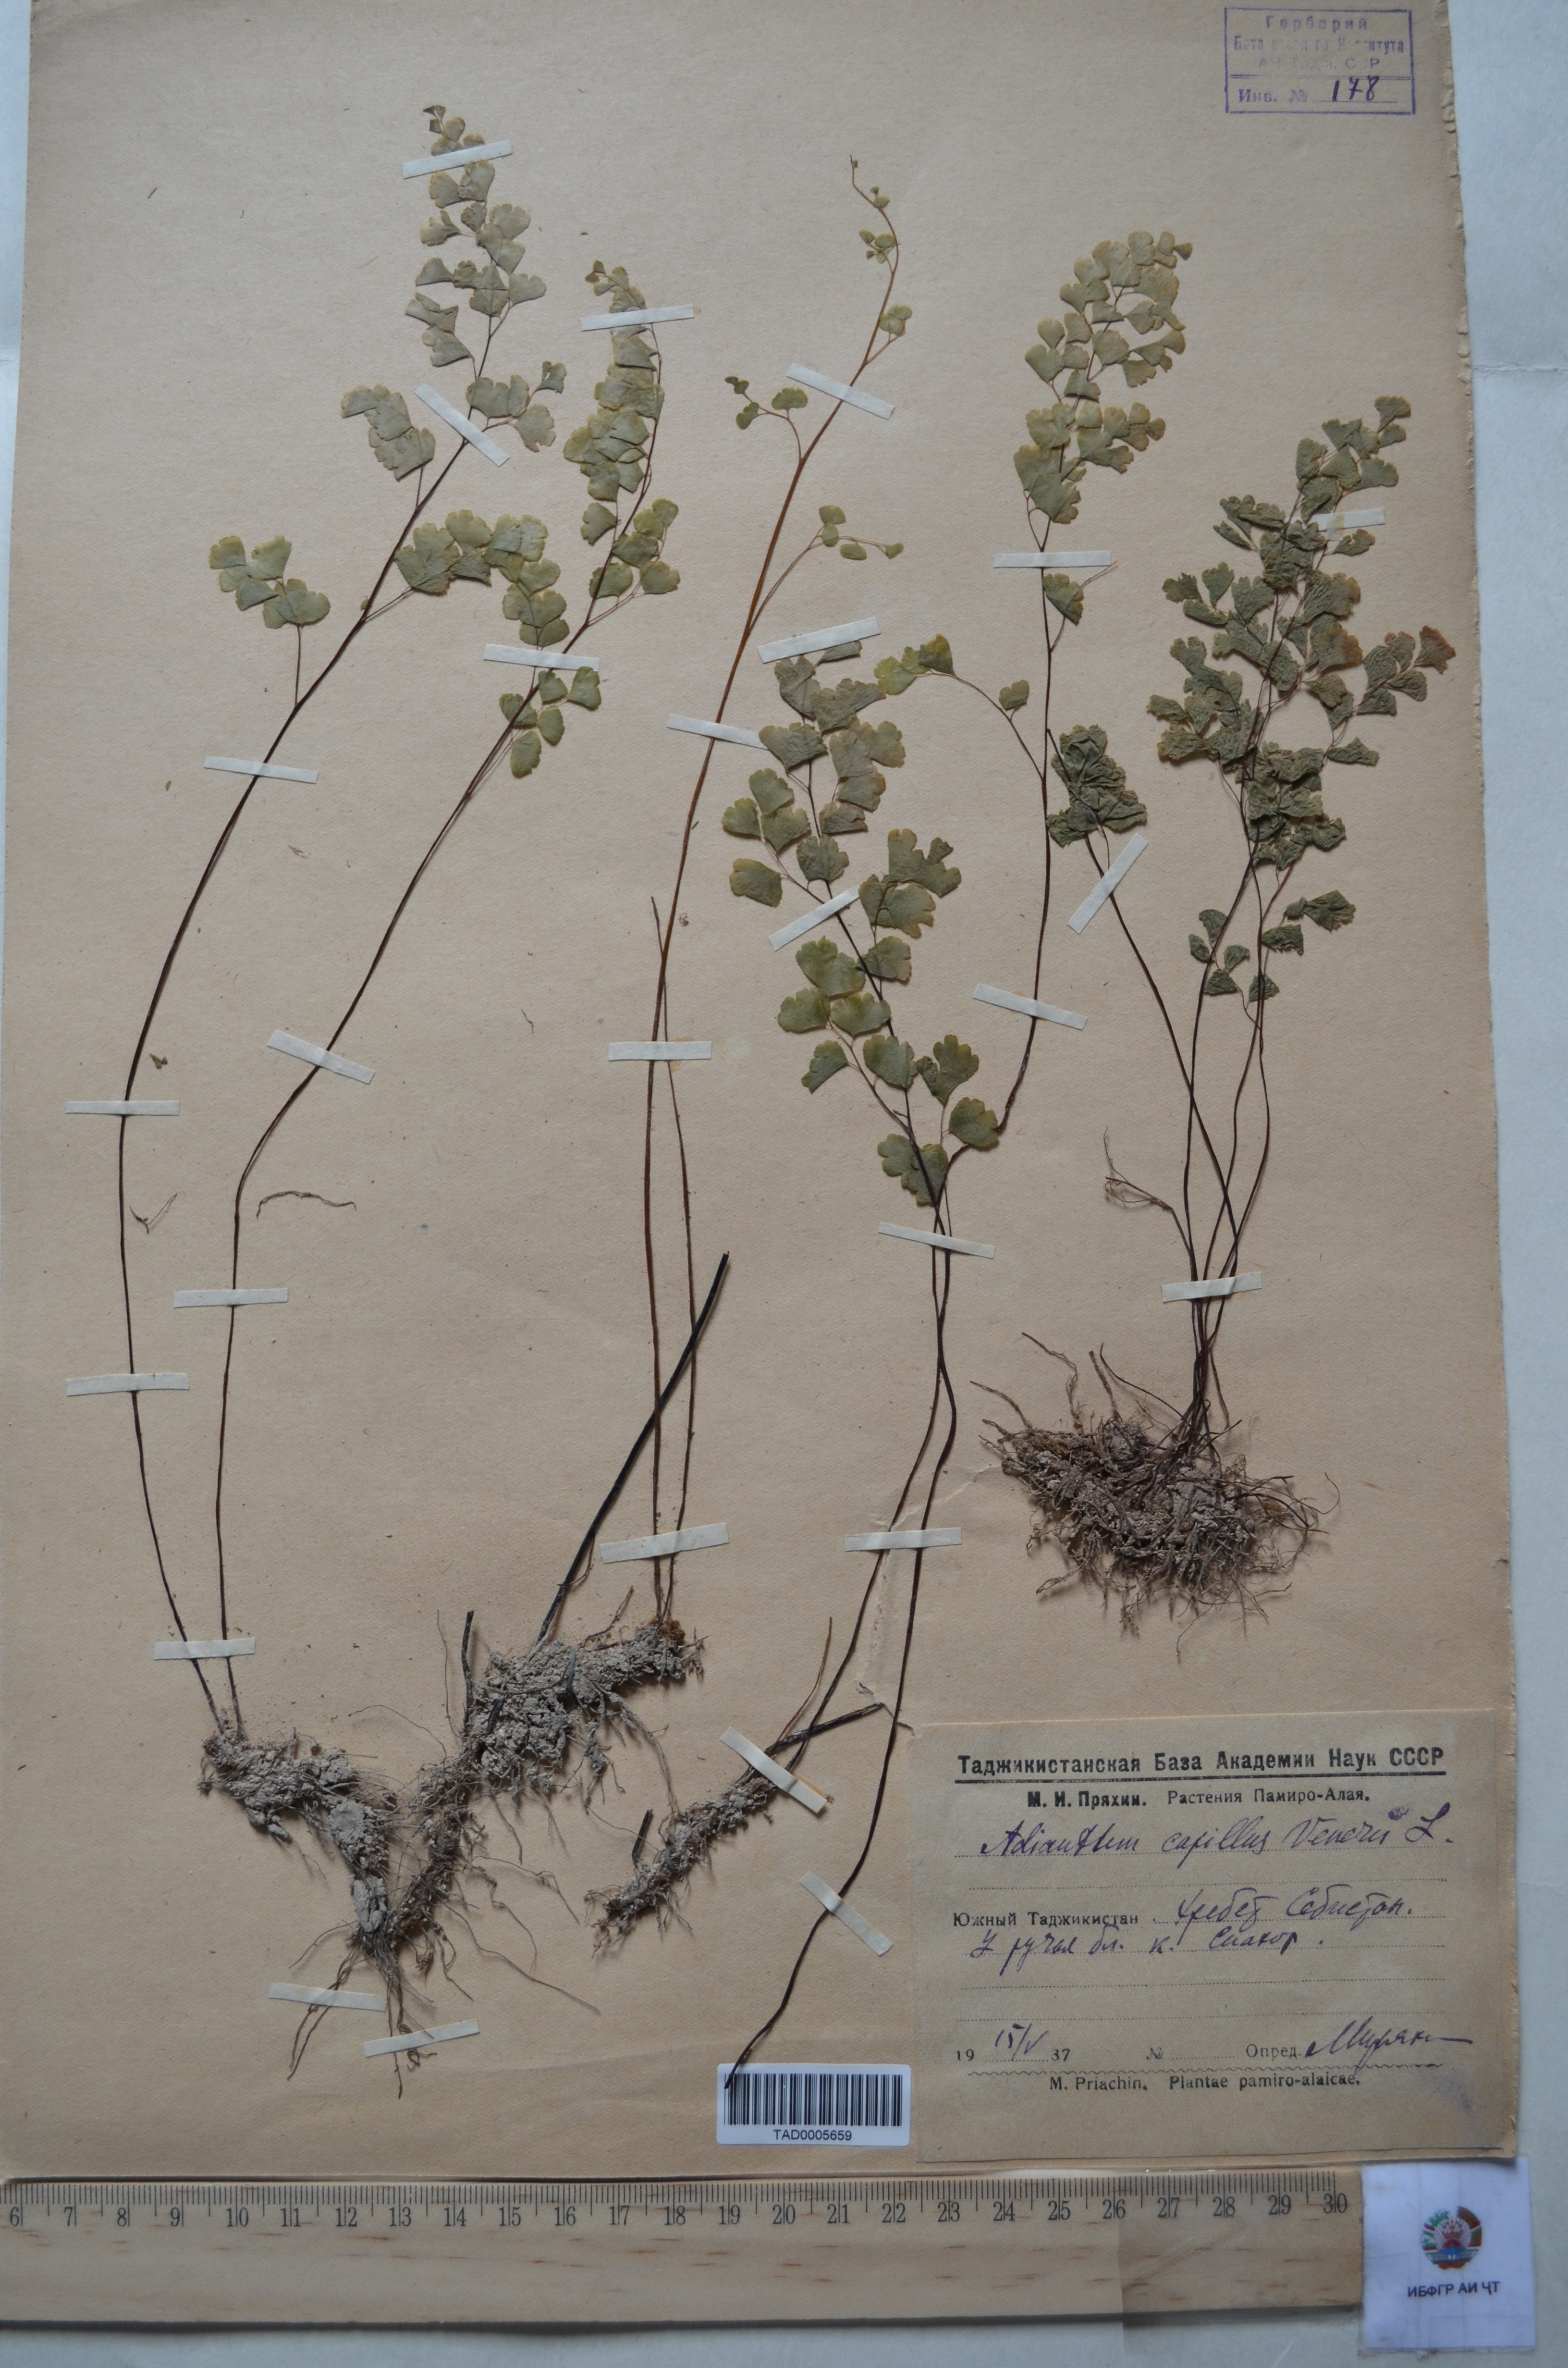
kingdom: Plantae
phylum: Tracheophyta
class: Polypodiopsida
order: Polypodiales
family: Pteridaceae
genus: Adiantum
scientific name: Adiantum capillus-veneris
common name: Maidenhair fern
